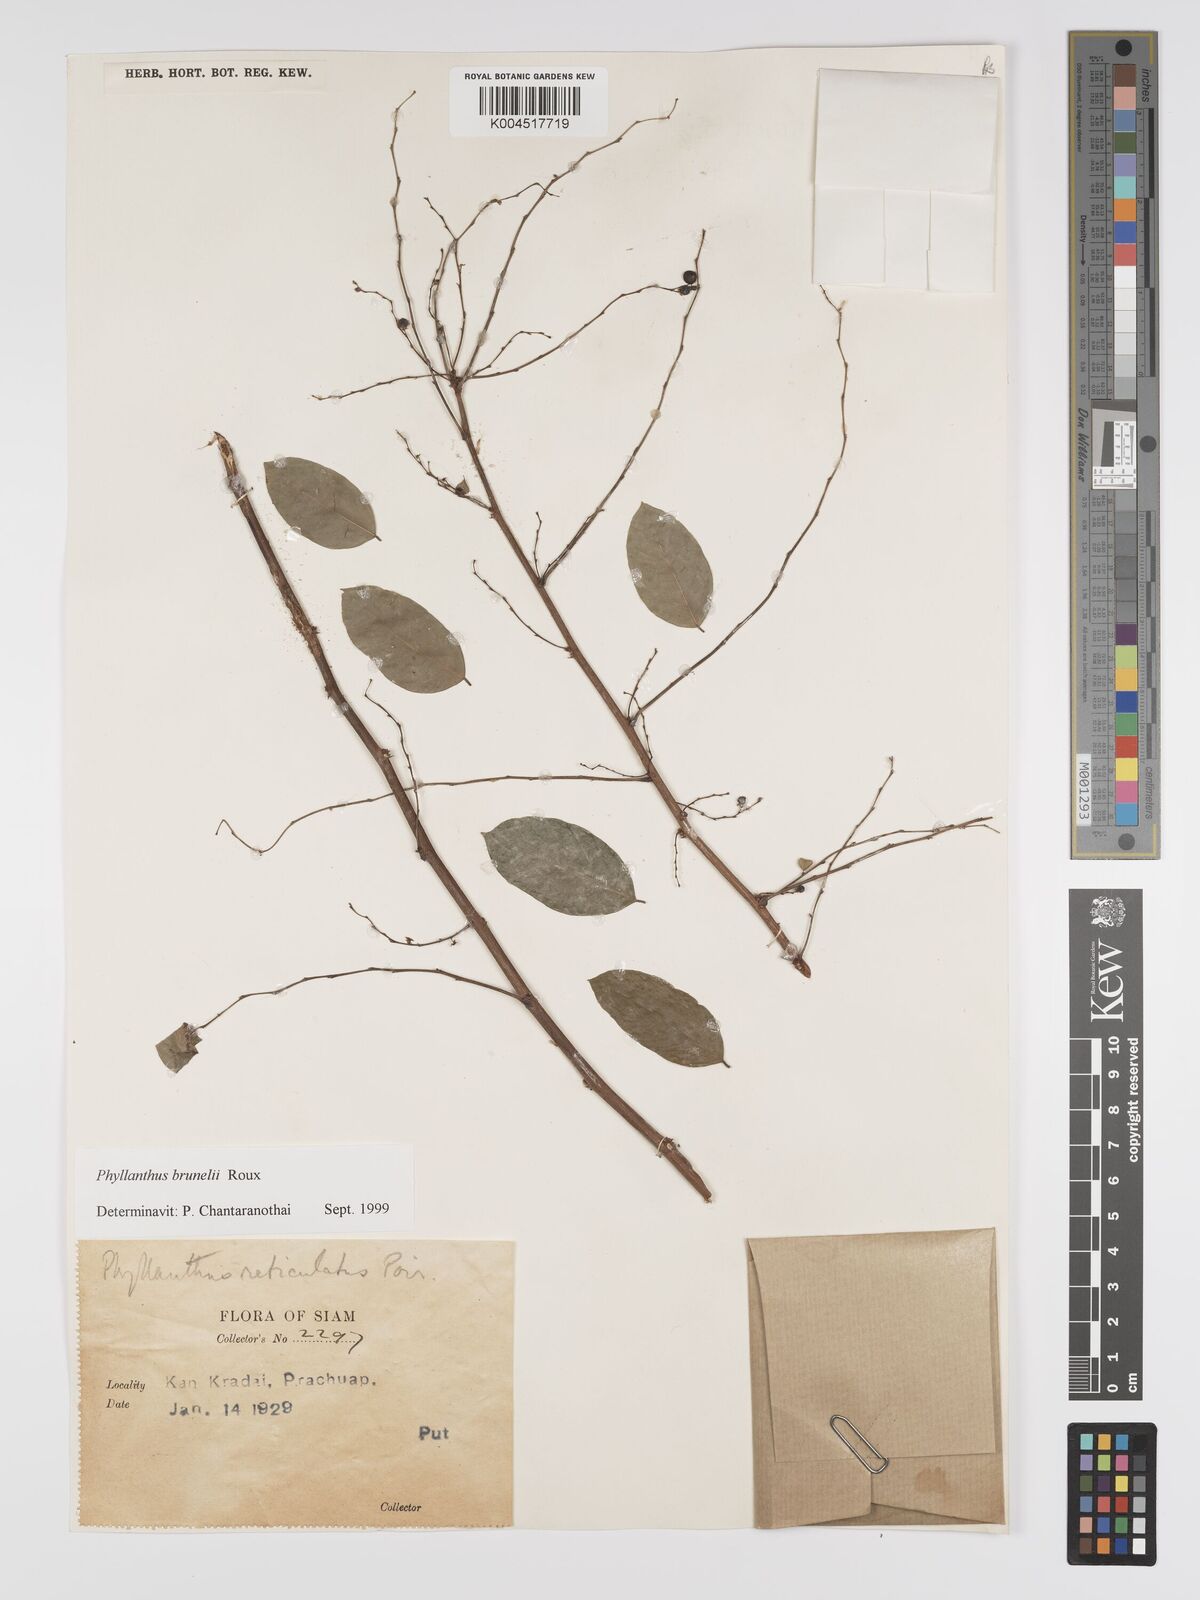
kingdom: Plantae
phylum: Tracheophyta
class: Magnoliopsida
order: Malpighiales
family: Phyllanthaceae
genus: Phyllanthus
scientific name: Phyllanthus microcarpus
